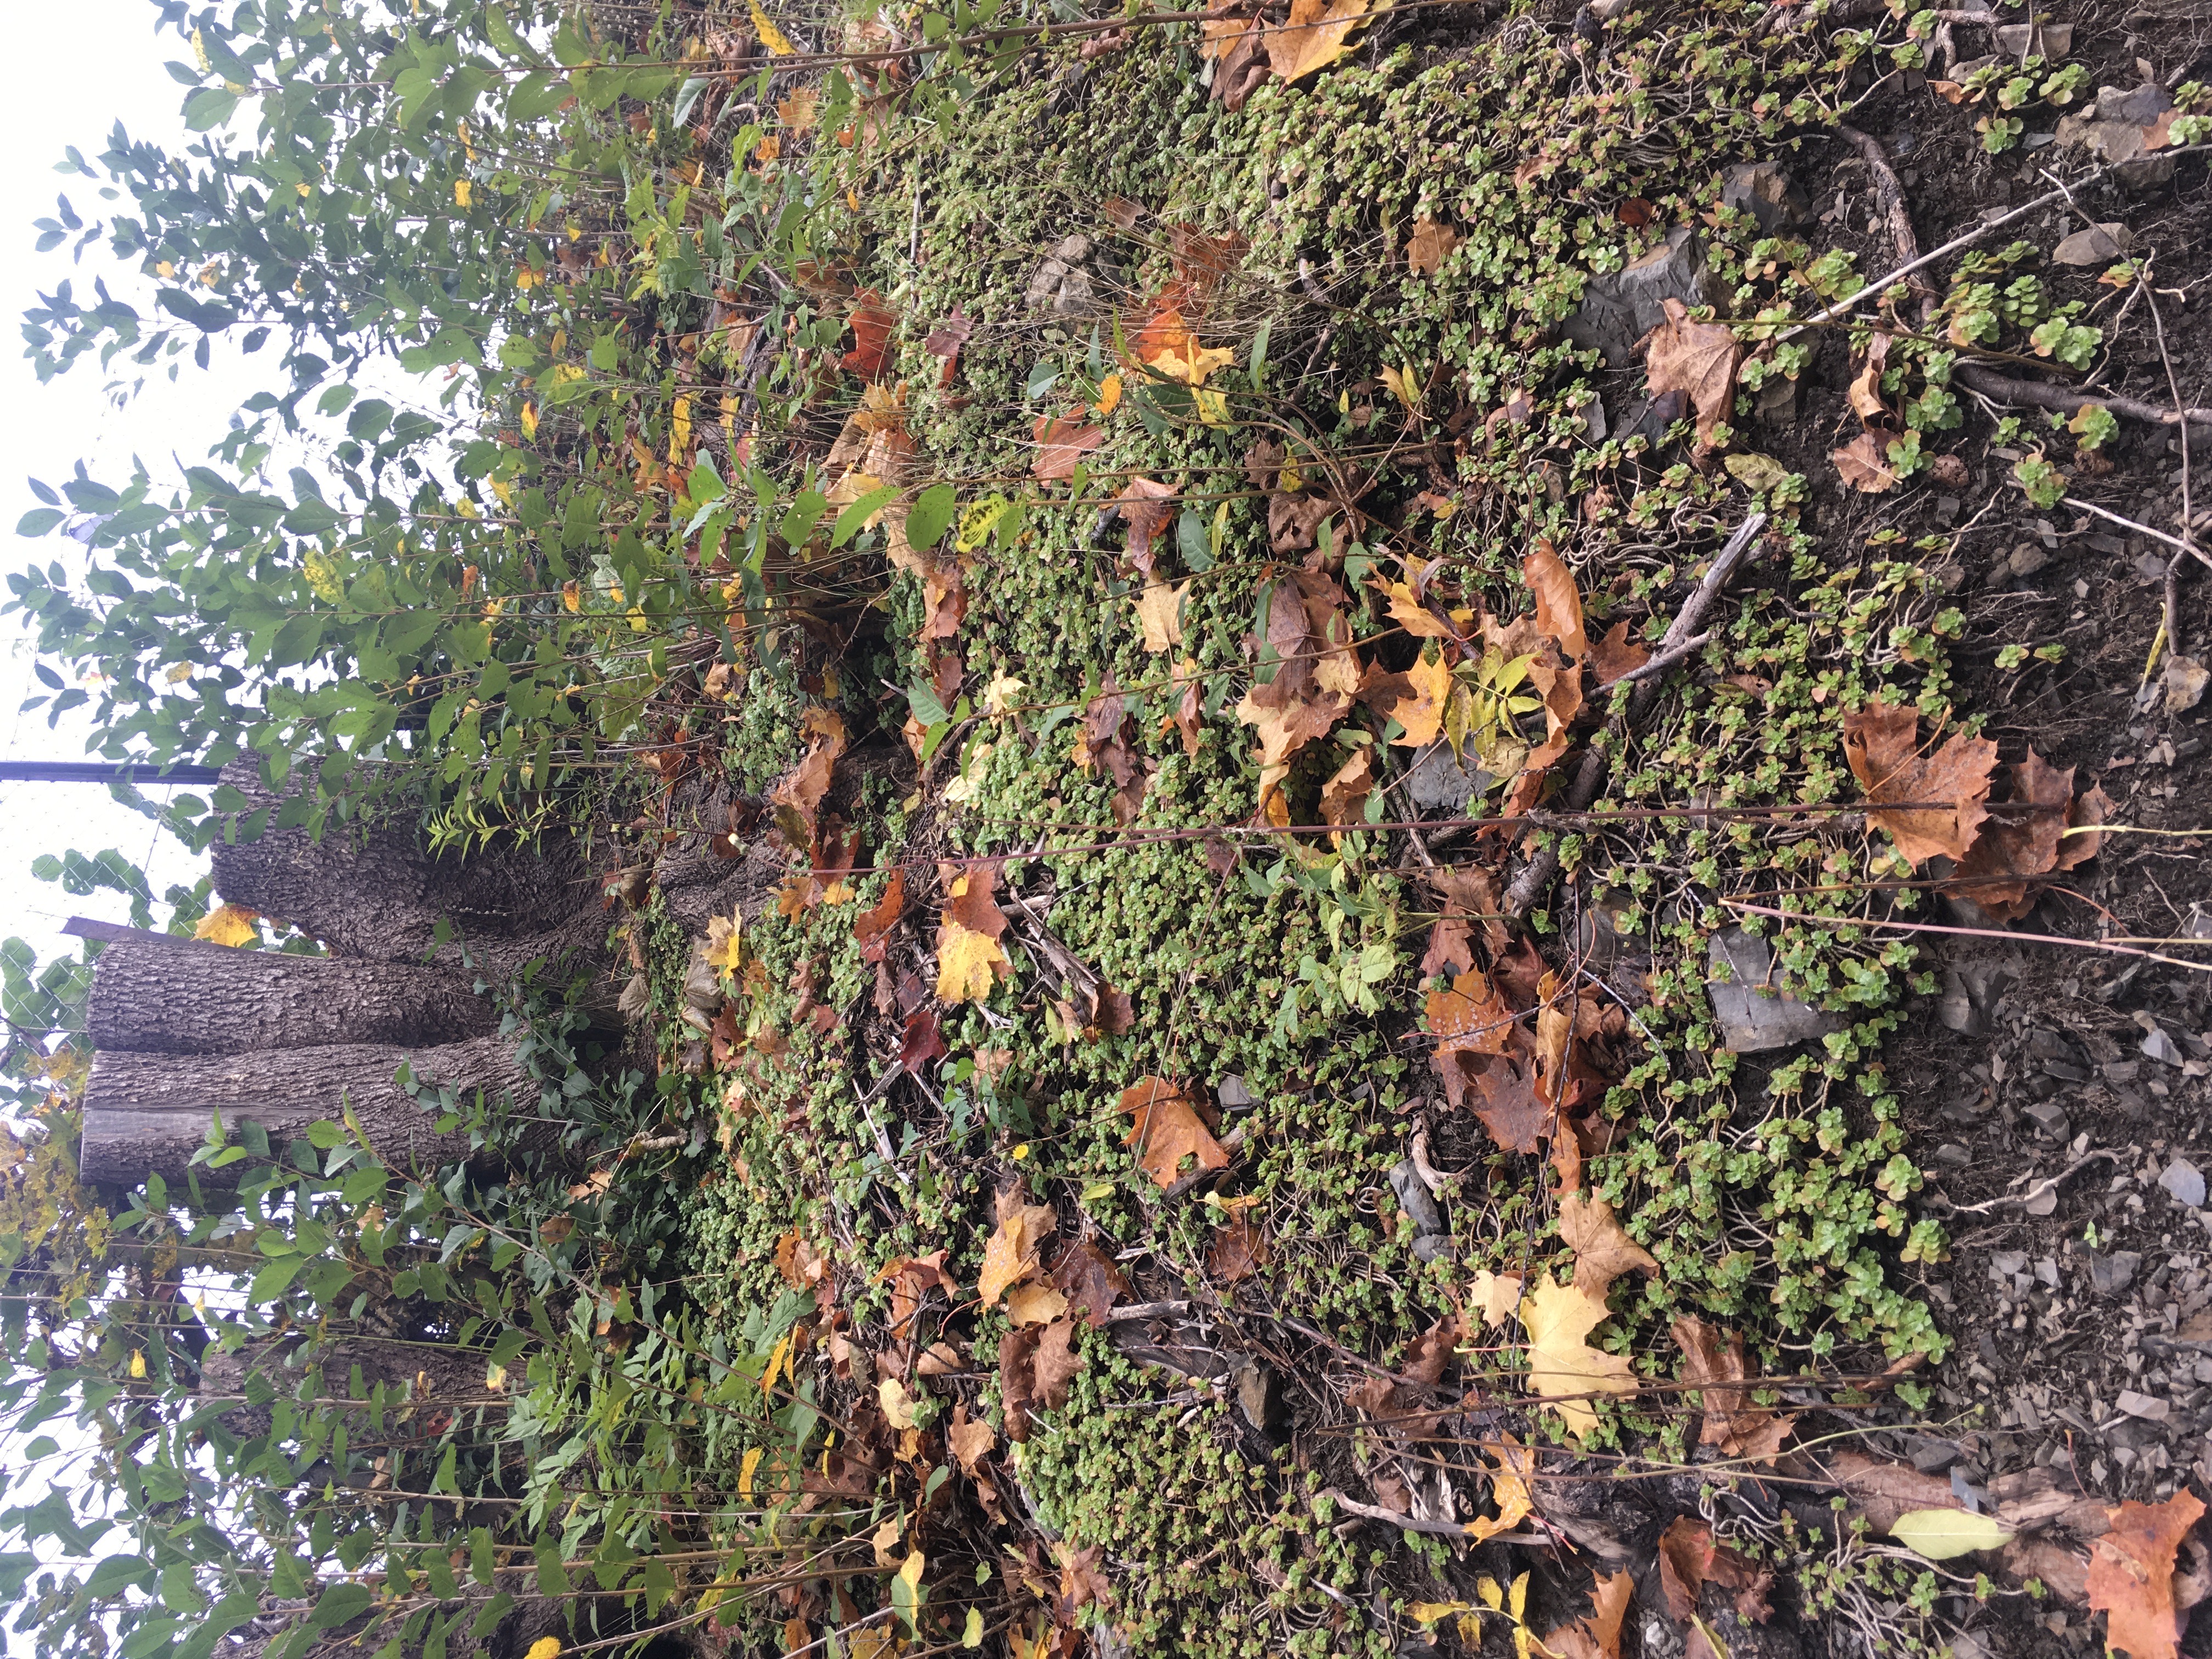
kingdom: Plantae
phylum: Tracheophyta
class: Magnoliopsida
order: Saxifragales
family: Crassulaceae
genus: Phedimus
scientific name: Phedimus spurius
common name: gravbergknapp
